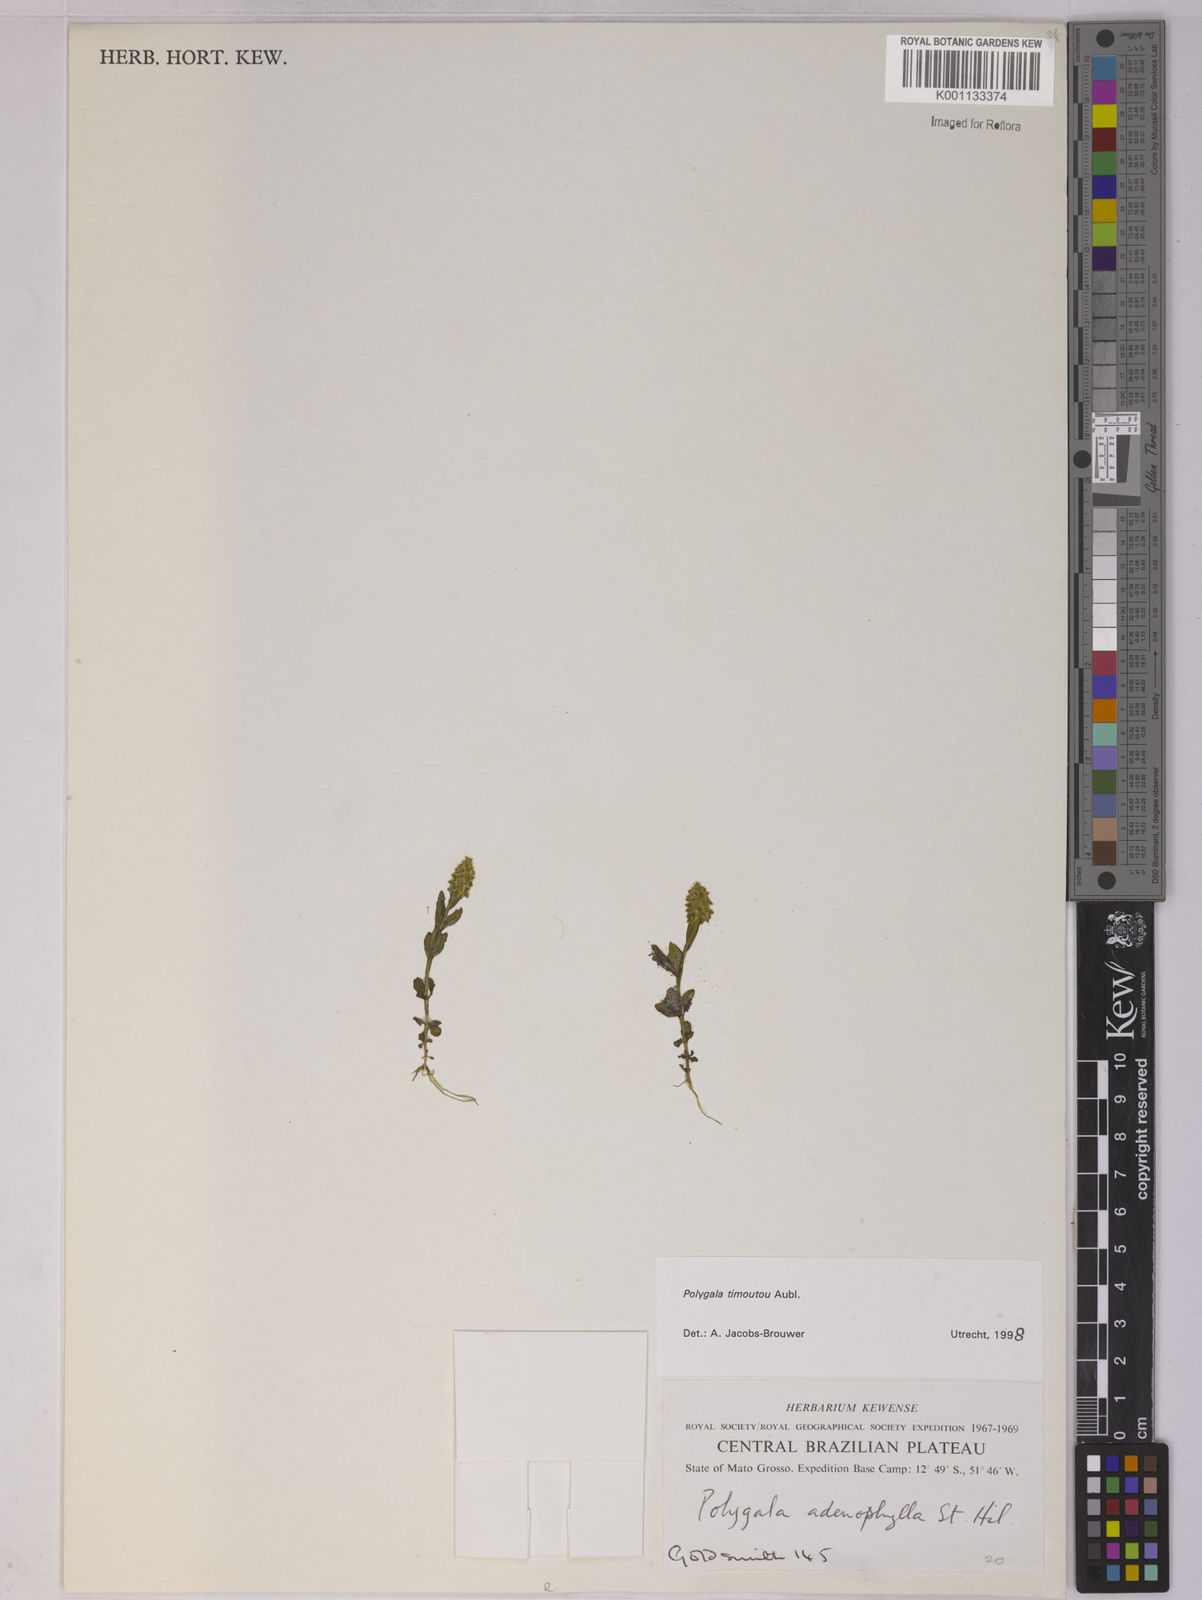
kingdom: Plantae
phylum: Tracheophyta
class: Magnoliopsida
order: Fabales
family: Polygalaceae
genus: Polygala
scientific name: Polygala timoutoides
